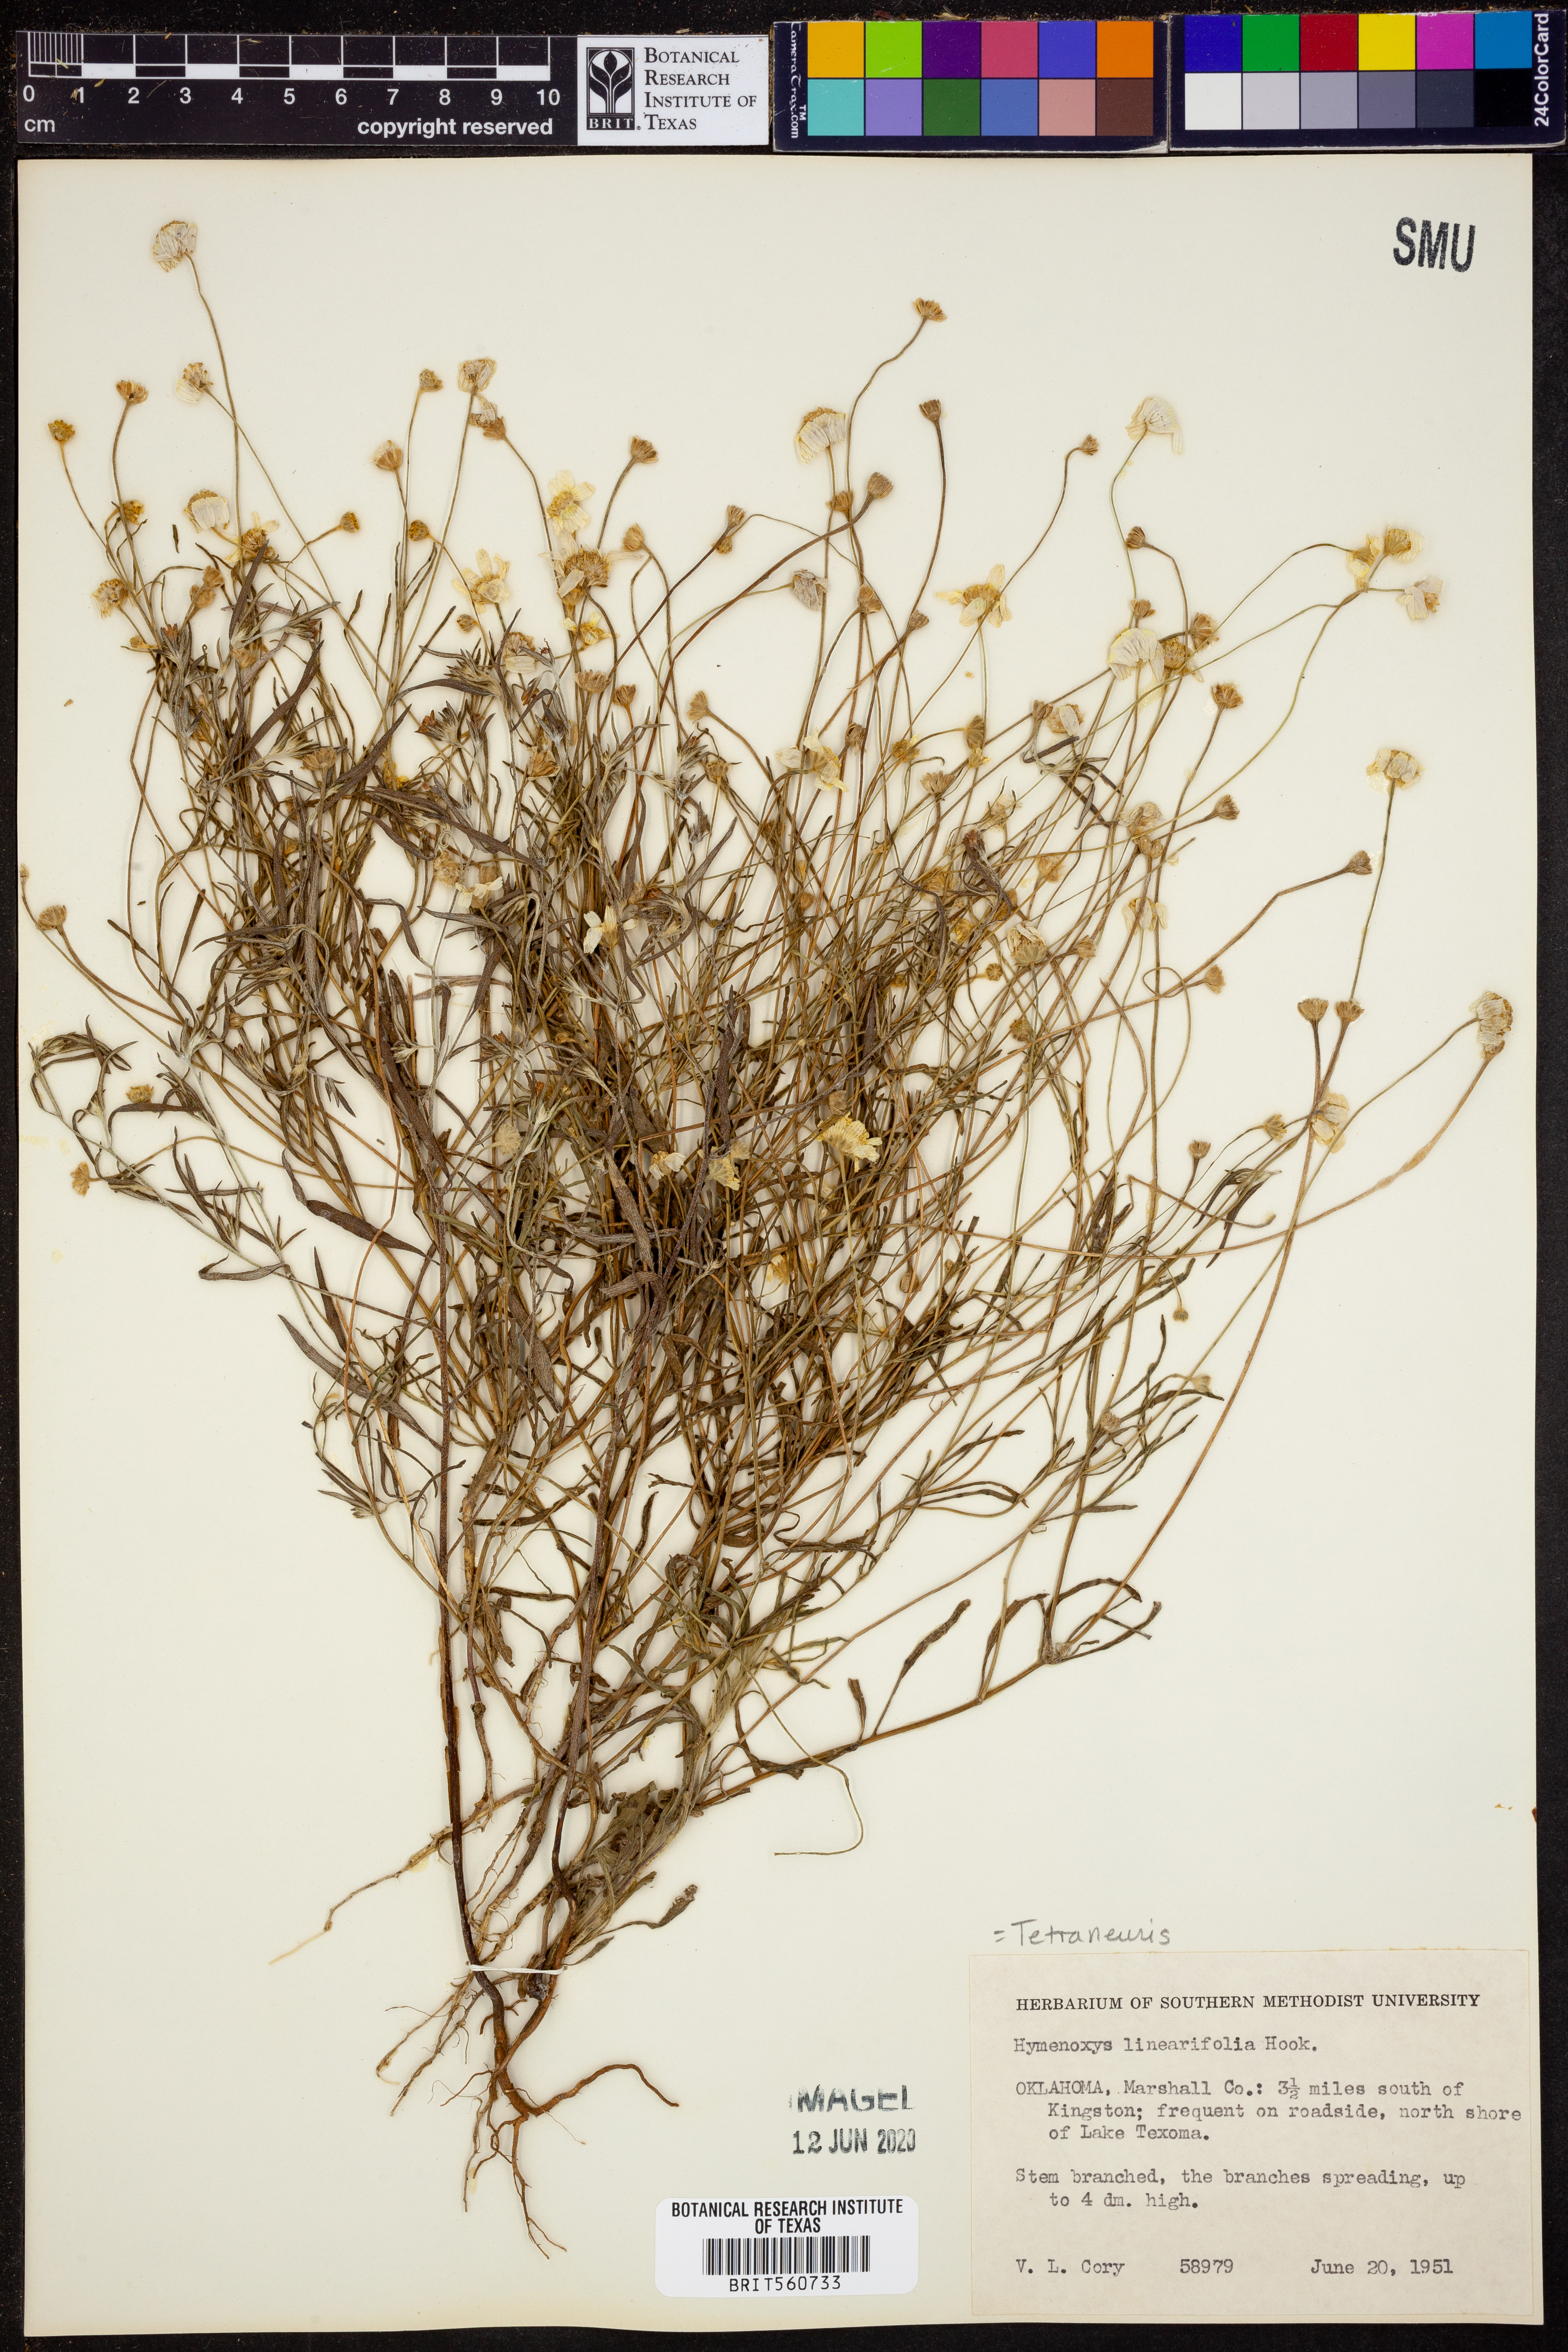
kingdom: Plantae
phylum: Tracheophyta
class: Magnoliopsida
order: Asterales
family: Asteraceae
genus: Tetraneuris
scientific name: Tetraneuris linearifolia
